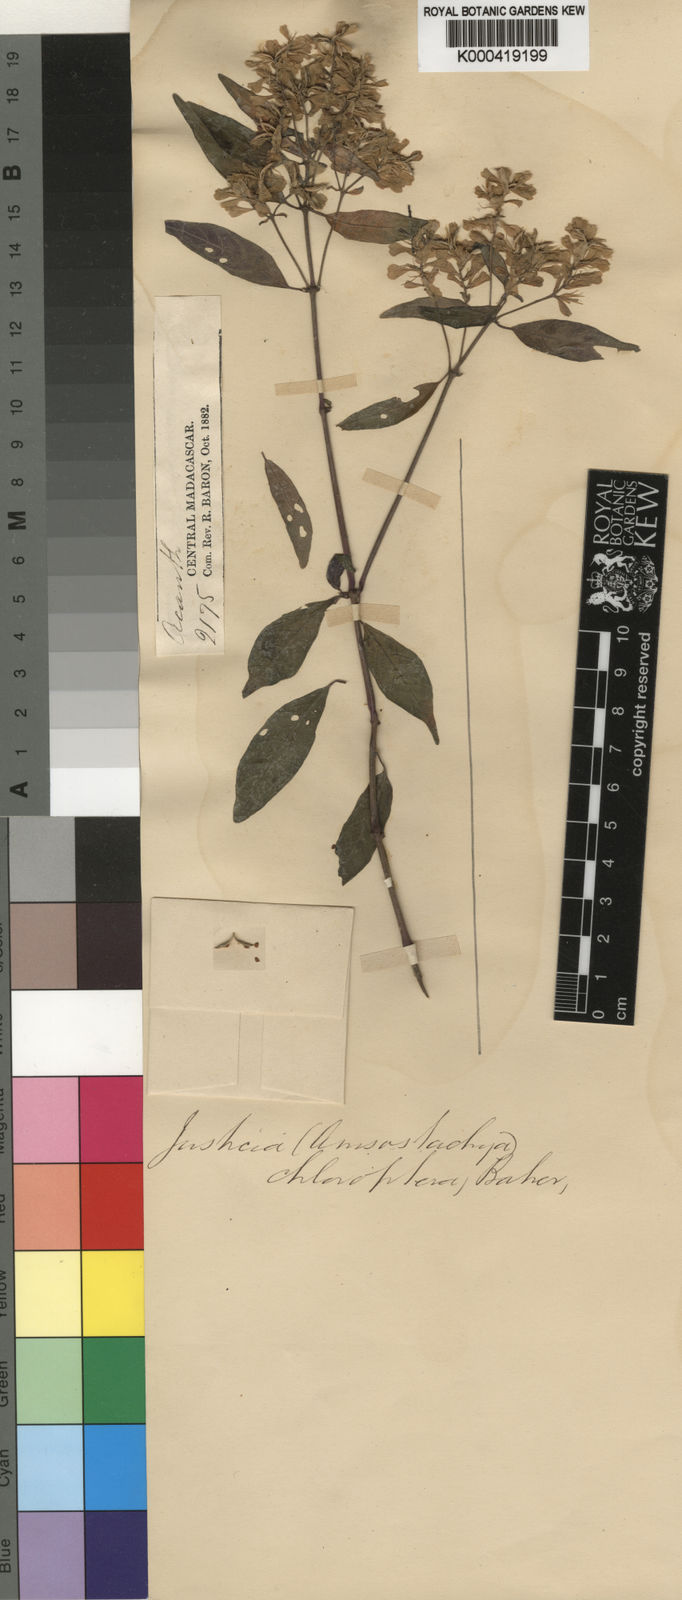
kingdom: Plantae
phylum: Tracheophyta
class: Magnoliopsida
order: Lamiales
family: Acanthaceae
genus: Justicia
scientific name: Justicia chloroptera
